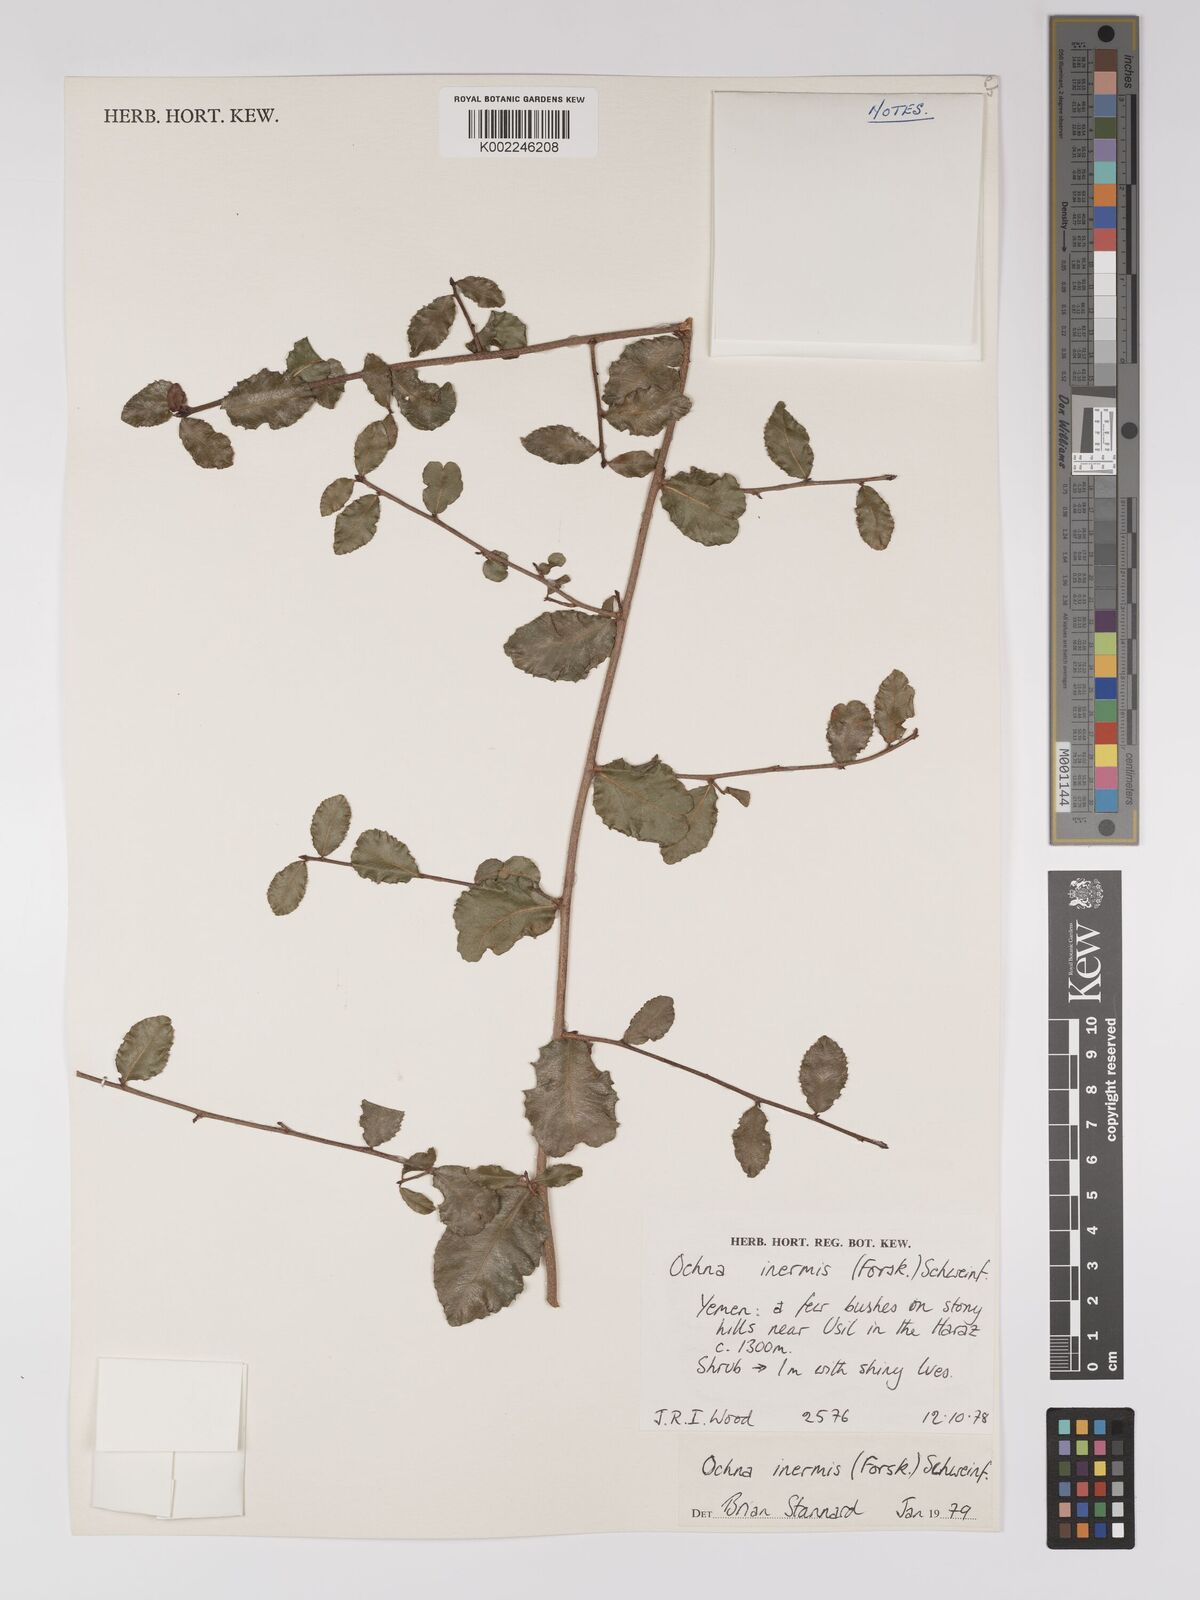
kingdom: Plantae
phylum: Tracheophyta
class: Magnoliopsida
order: Malpighiales
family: Ochnaceae
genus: Ochna
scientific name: Ochna inermis
